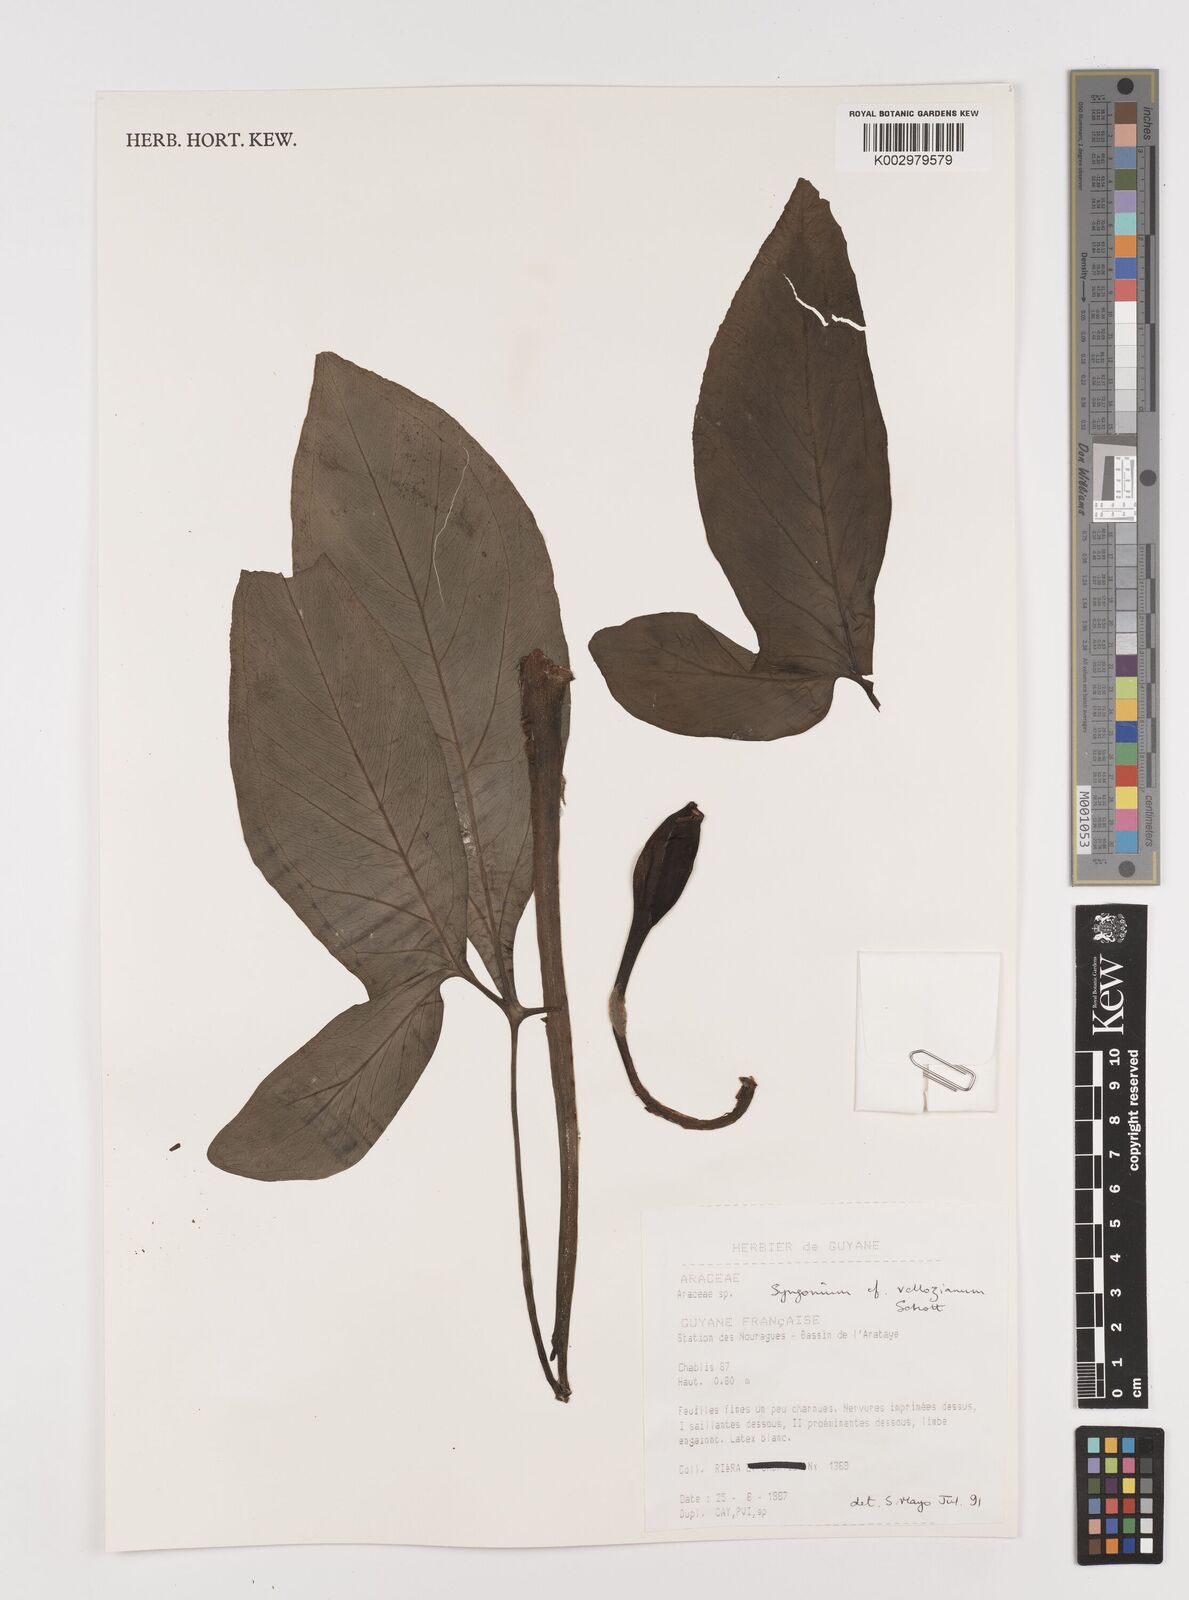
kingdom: Plantae
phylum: Tracheophyta
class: Liliopsida
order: Alismatales
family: Araceae
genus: Syngonium
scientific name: Syngonium podophyllum
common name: American evergreen
